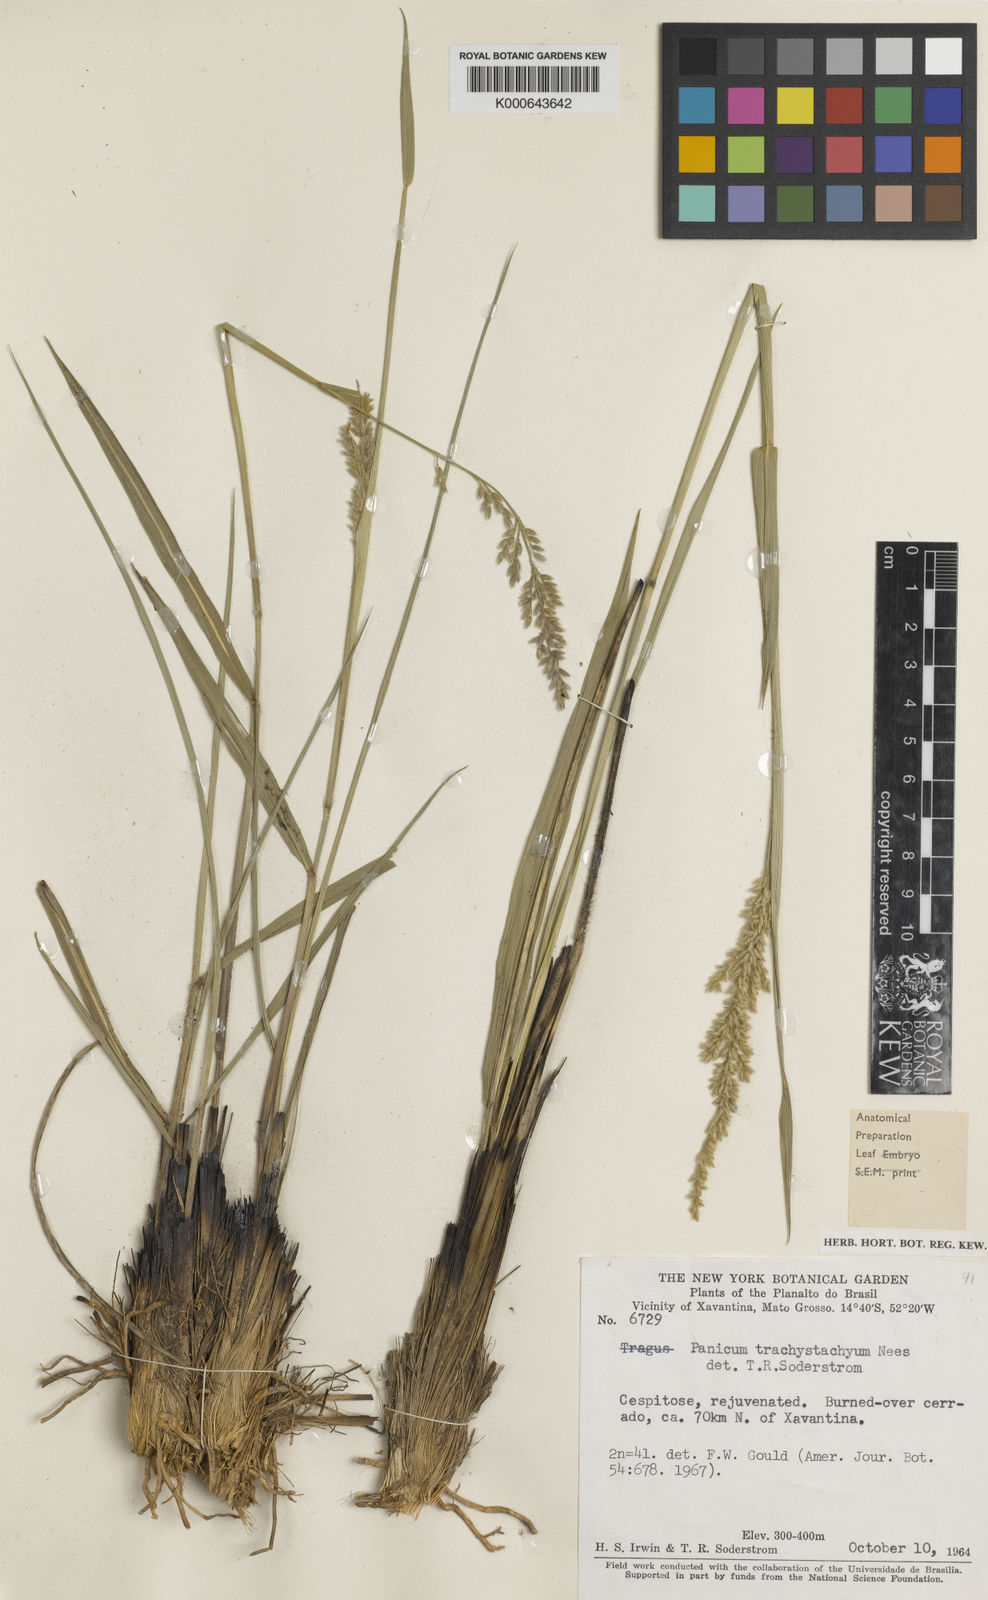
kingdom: Plantae
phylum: Tracheophyta
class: Liliopsida
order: Poales
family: Poaceae
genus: Anthaenantiopsis
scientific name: Anthaenantiopsis perforata
